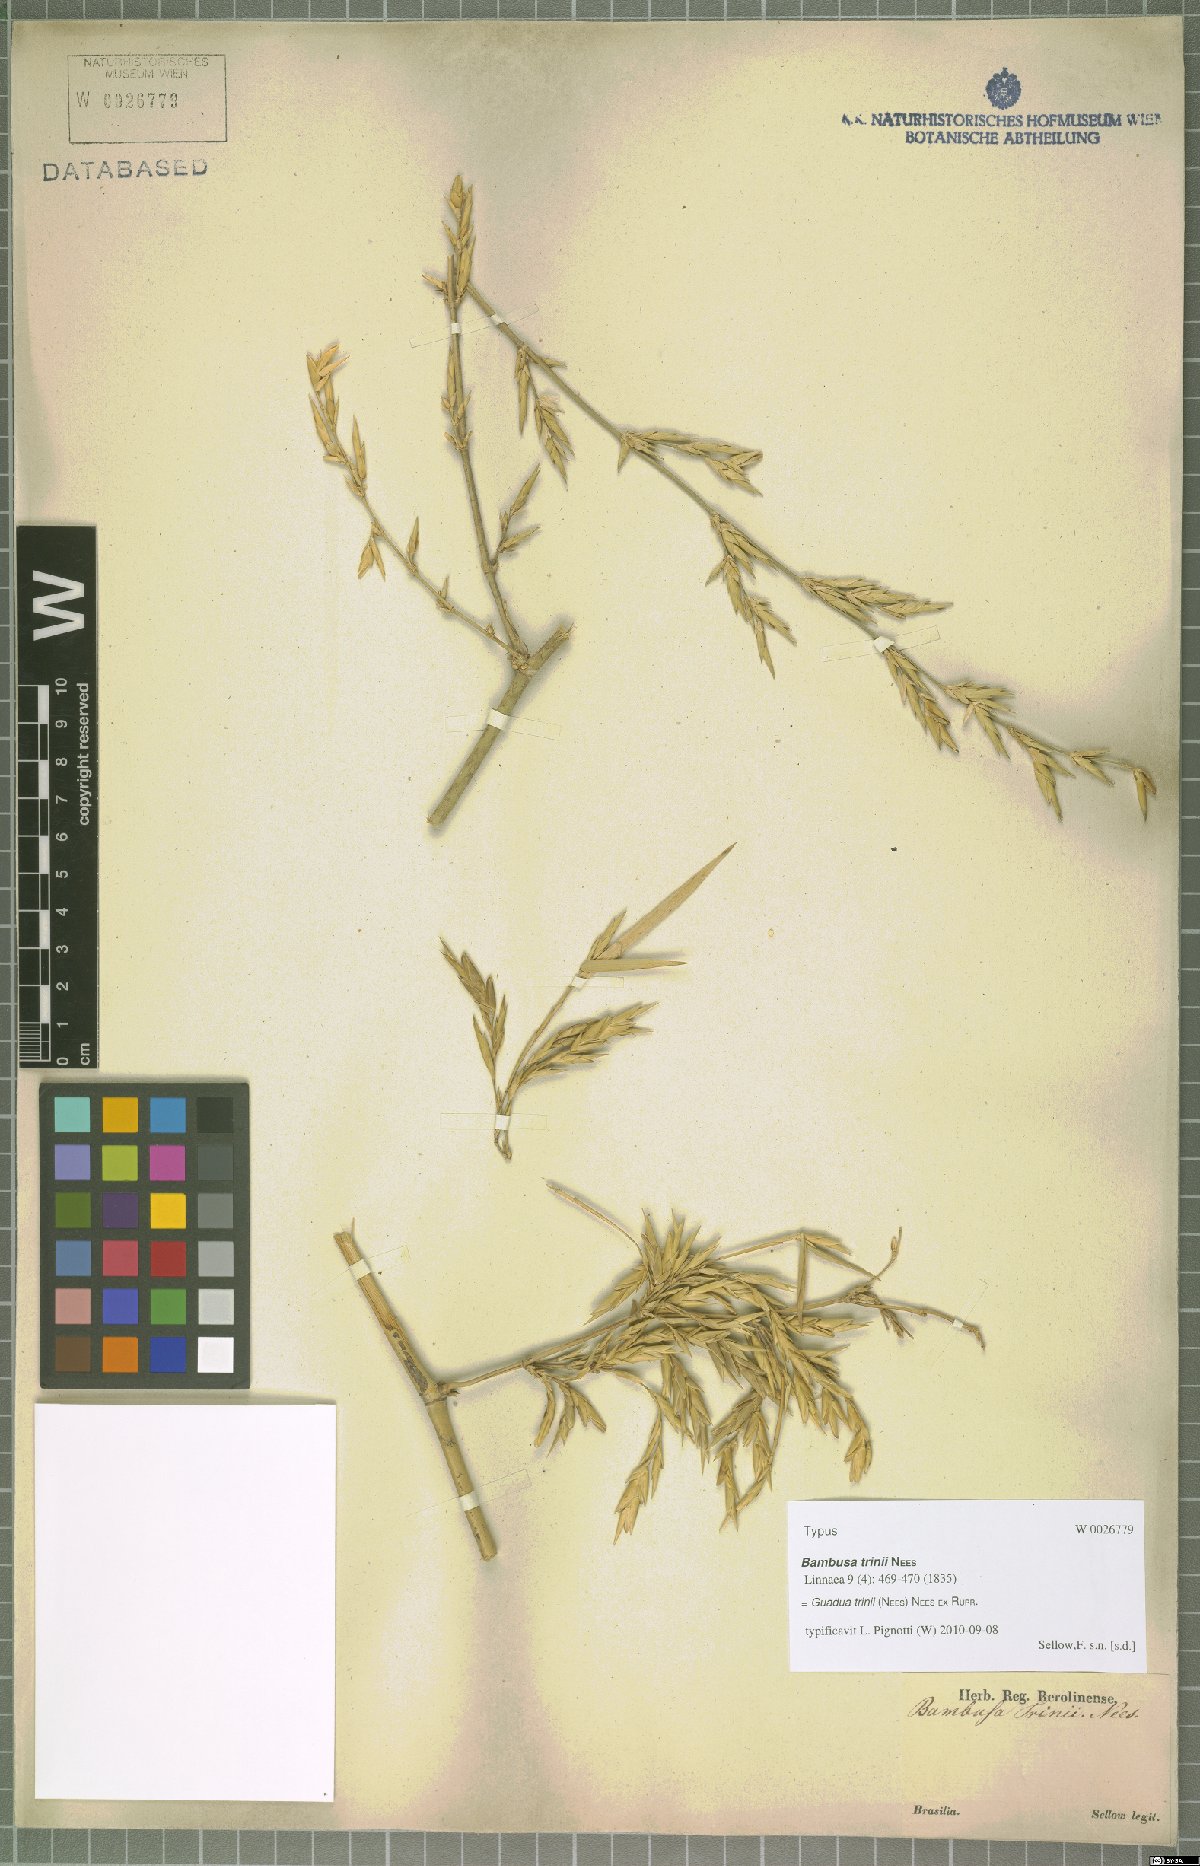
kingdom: Plantae
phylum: Tracheophyta
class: Liliopsida
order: Poales
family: Poaceae
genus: Guadua
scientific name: Guadua trinii
